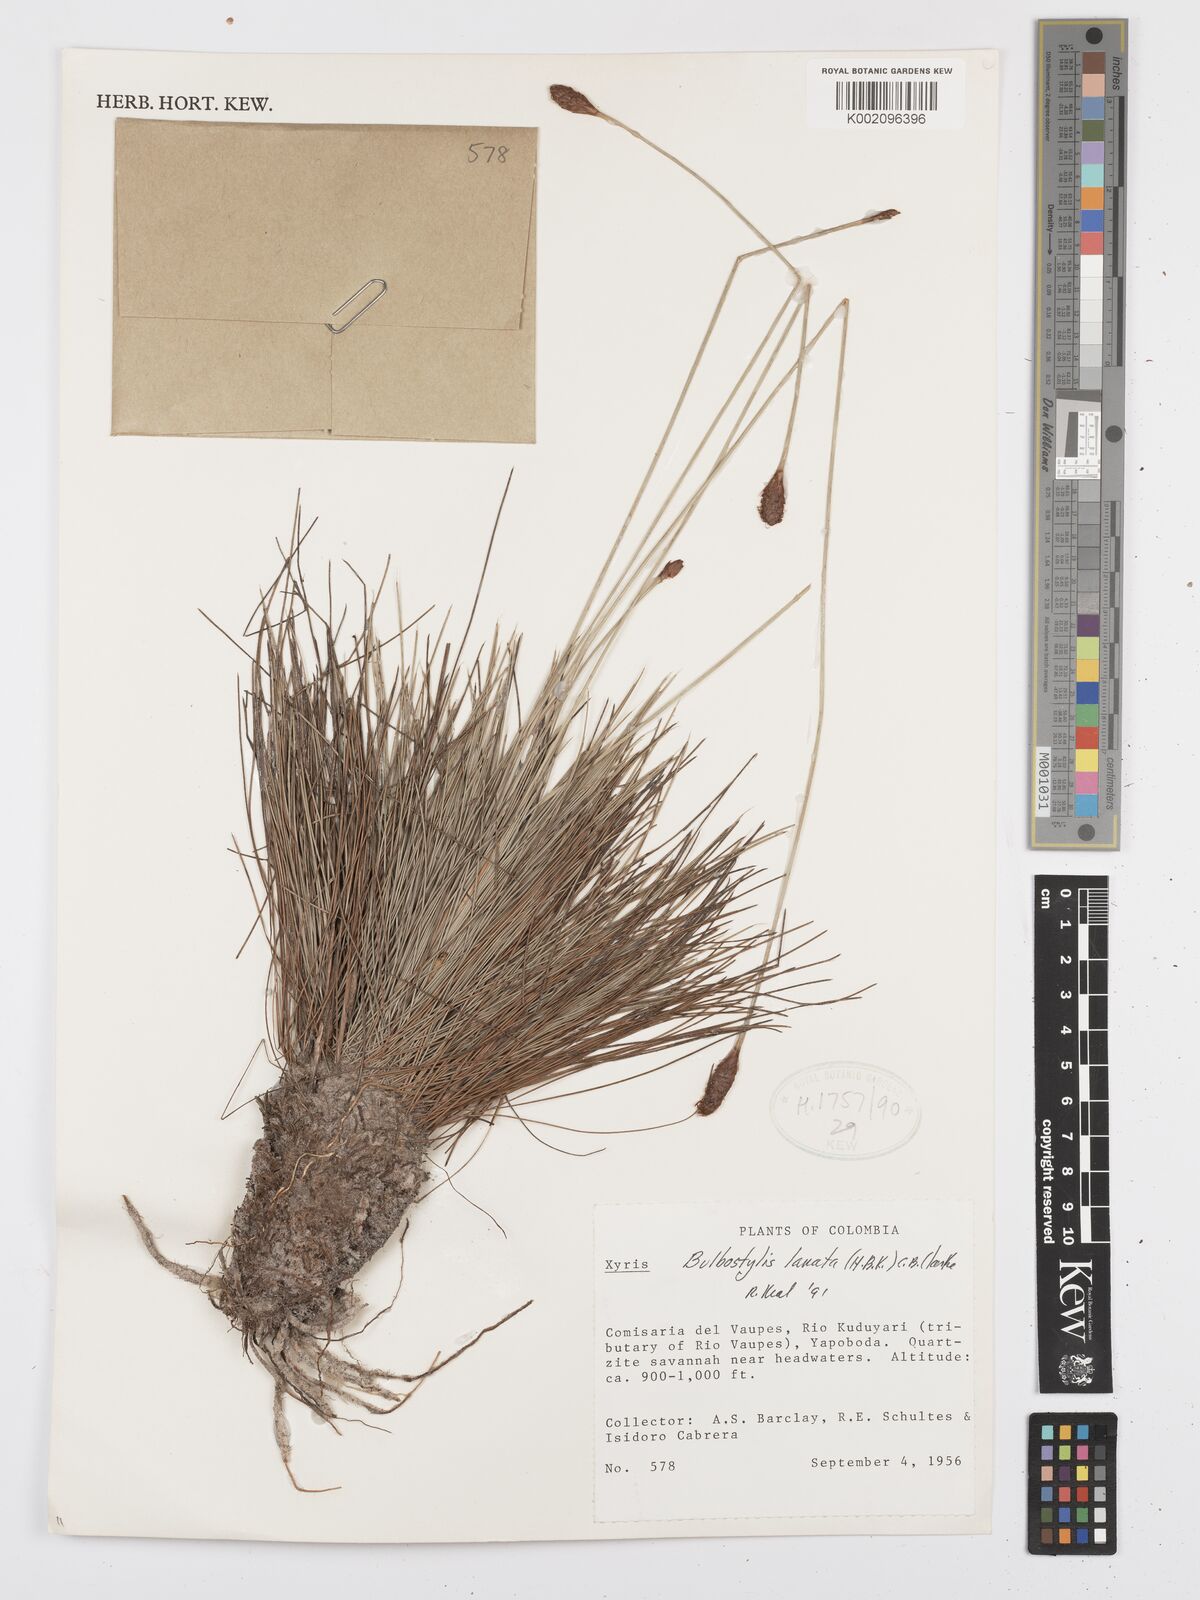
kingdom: Plantae
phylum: Tracheophyta
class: Liliopsida
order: Poales
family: Cyperaceae
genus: Bulbostylis
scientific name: Bulbostylis lanata
